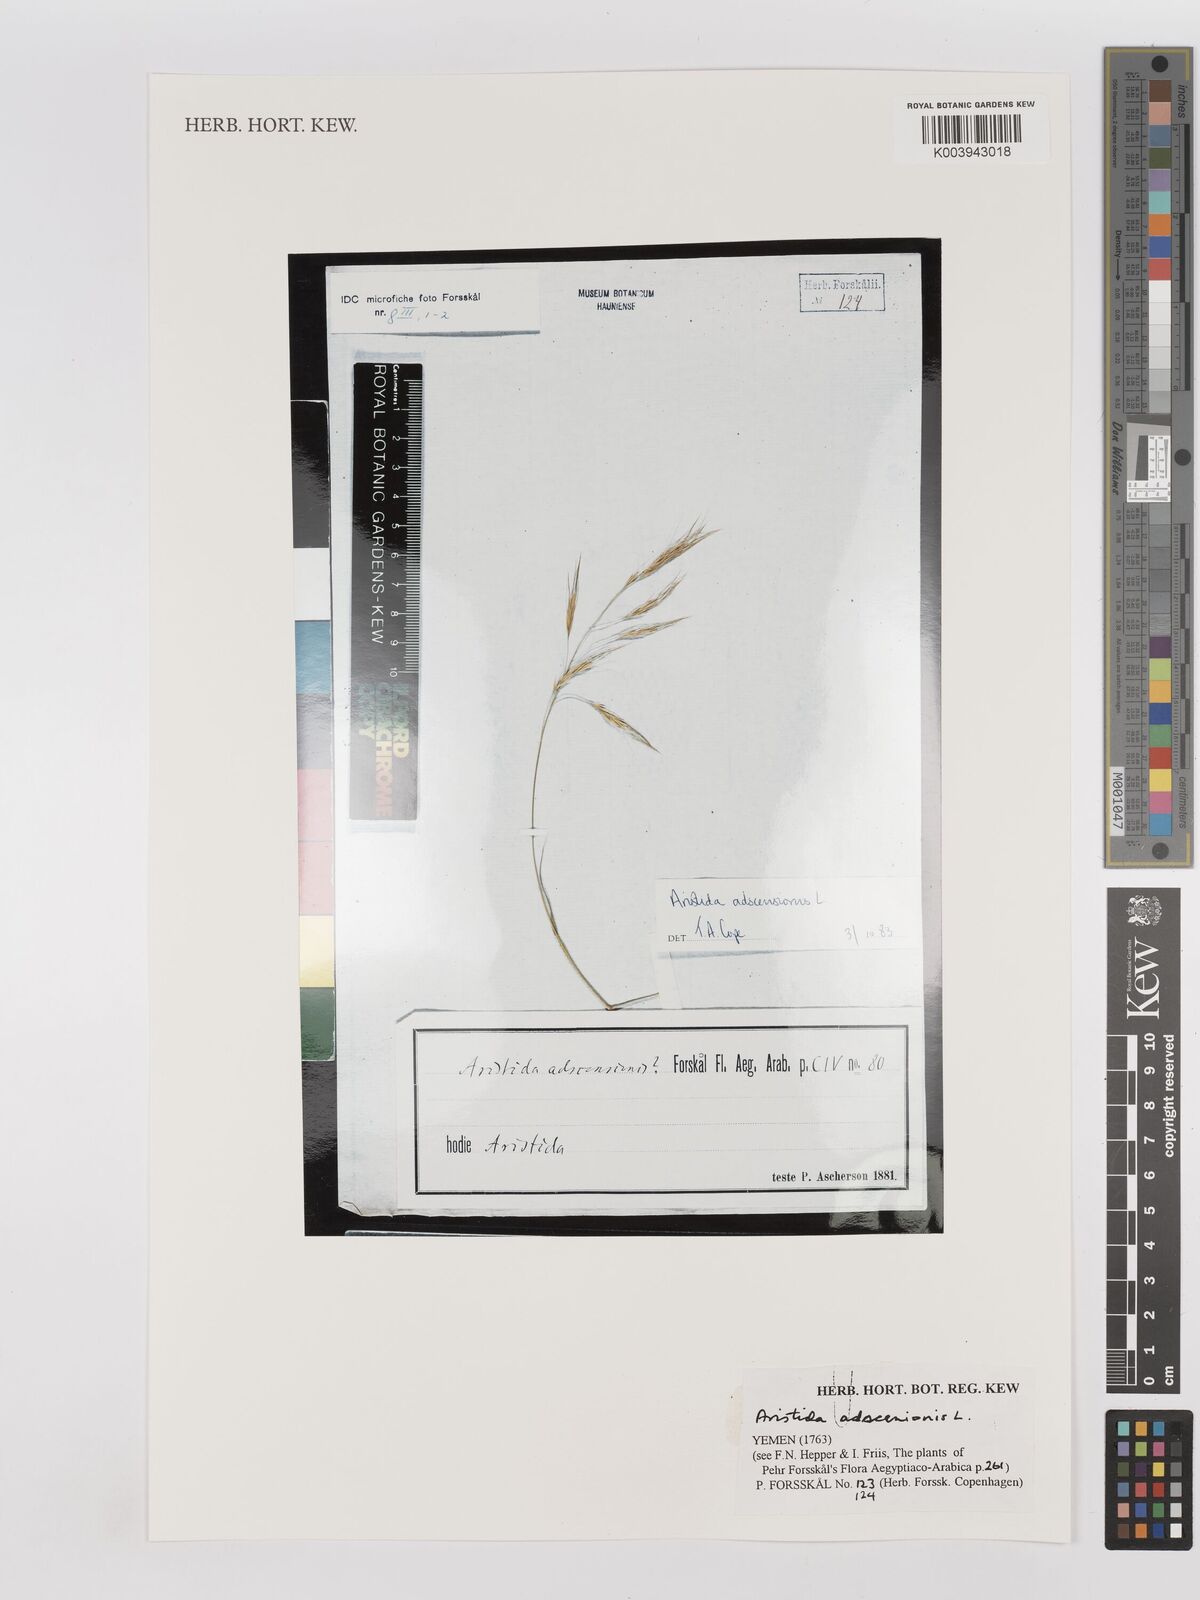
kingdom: Plantae
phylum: Tracheophyta
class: Liliopsida
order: Poales
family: Poaceae
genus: Aristida
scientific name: Aristida adscensionis
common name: Sixweeks threeawn
